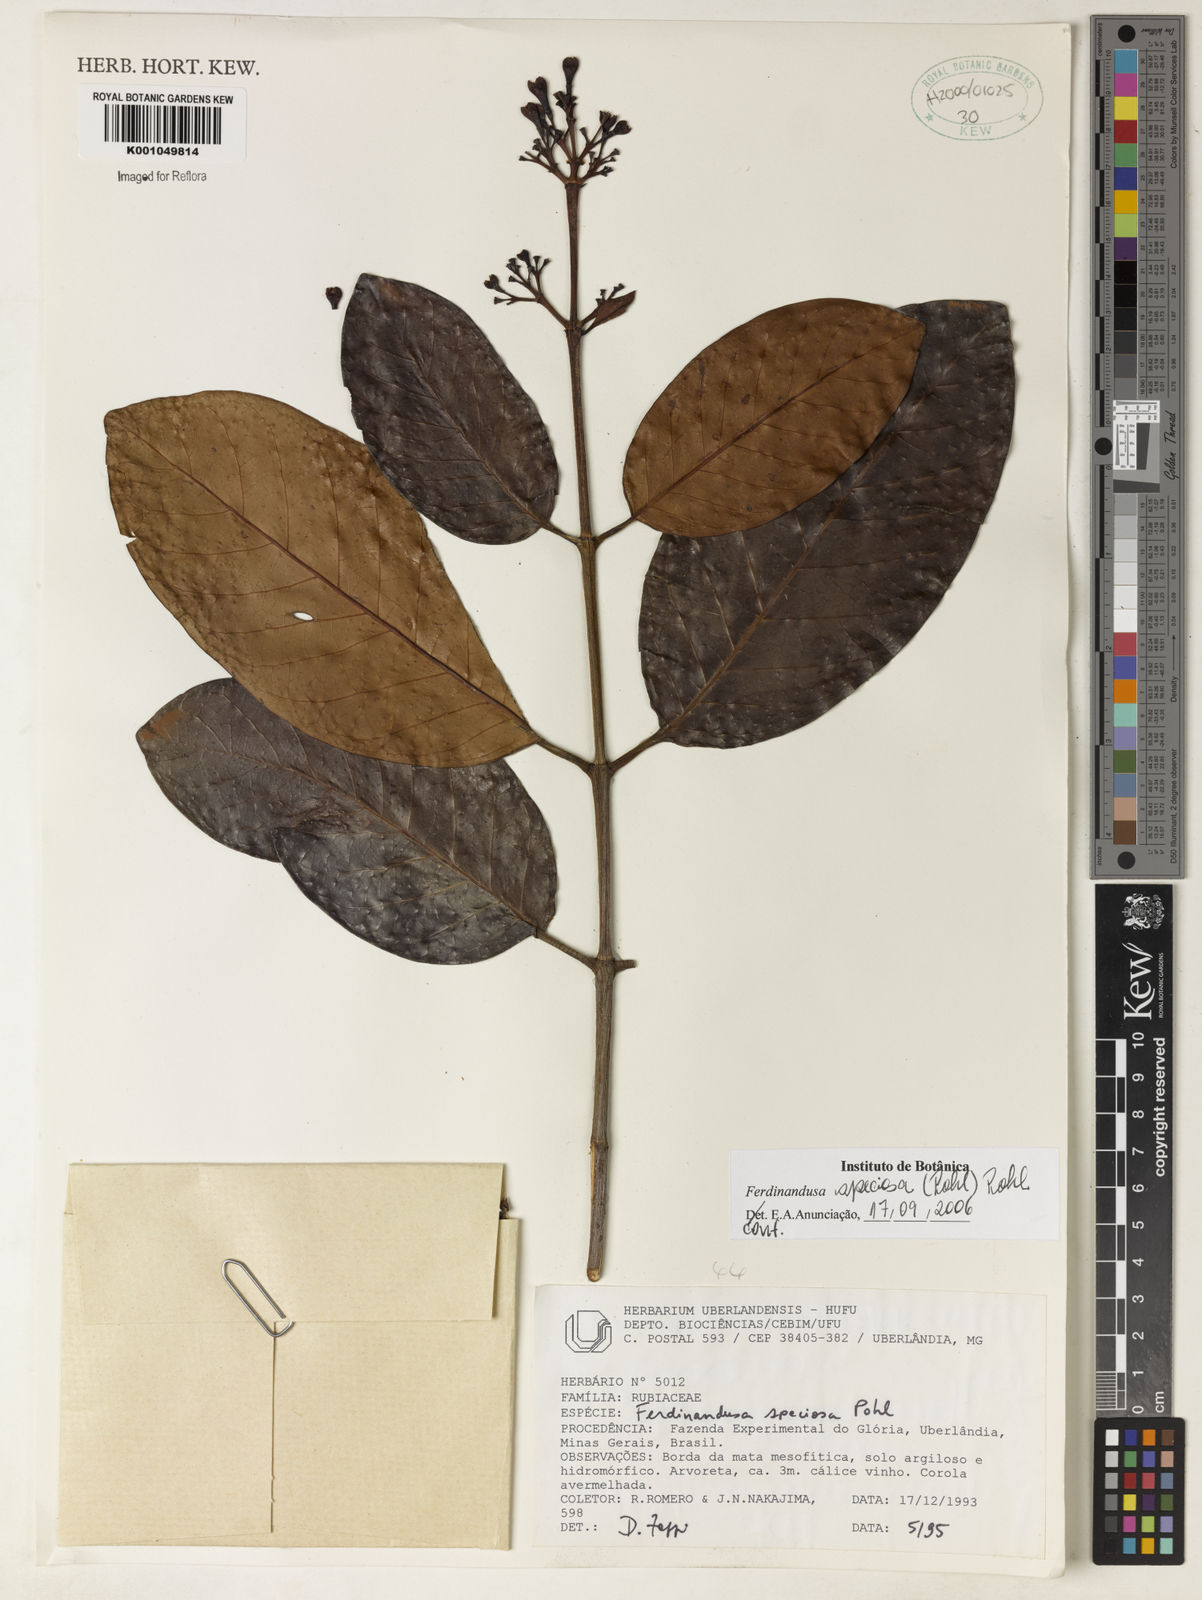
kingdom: Plantae
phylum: Tracheophyta
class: Magnoliopsida
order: Gentianales
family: Rubiaceae
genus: Ferdinandusa
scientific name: Ferdinandusa speciosa
